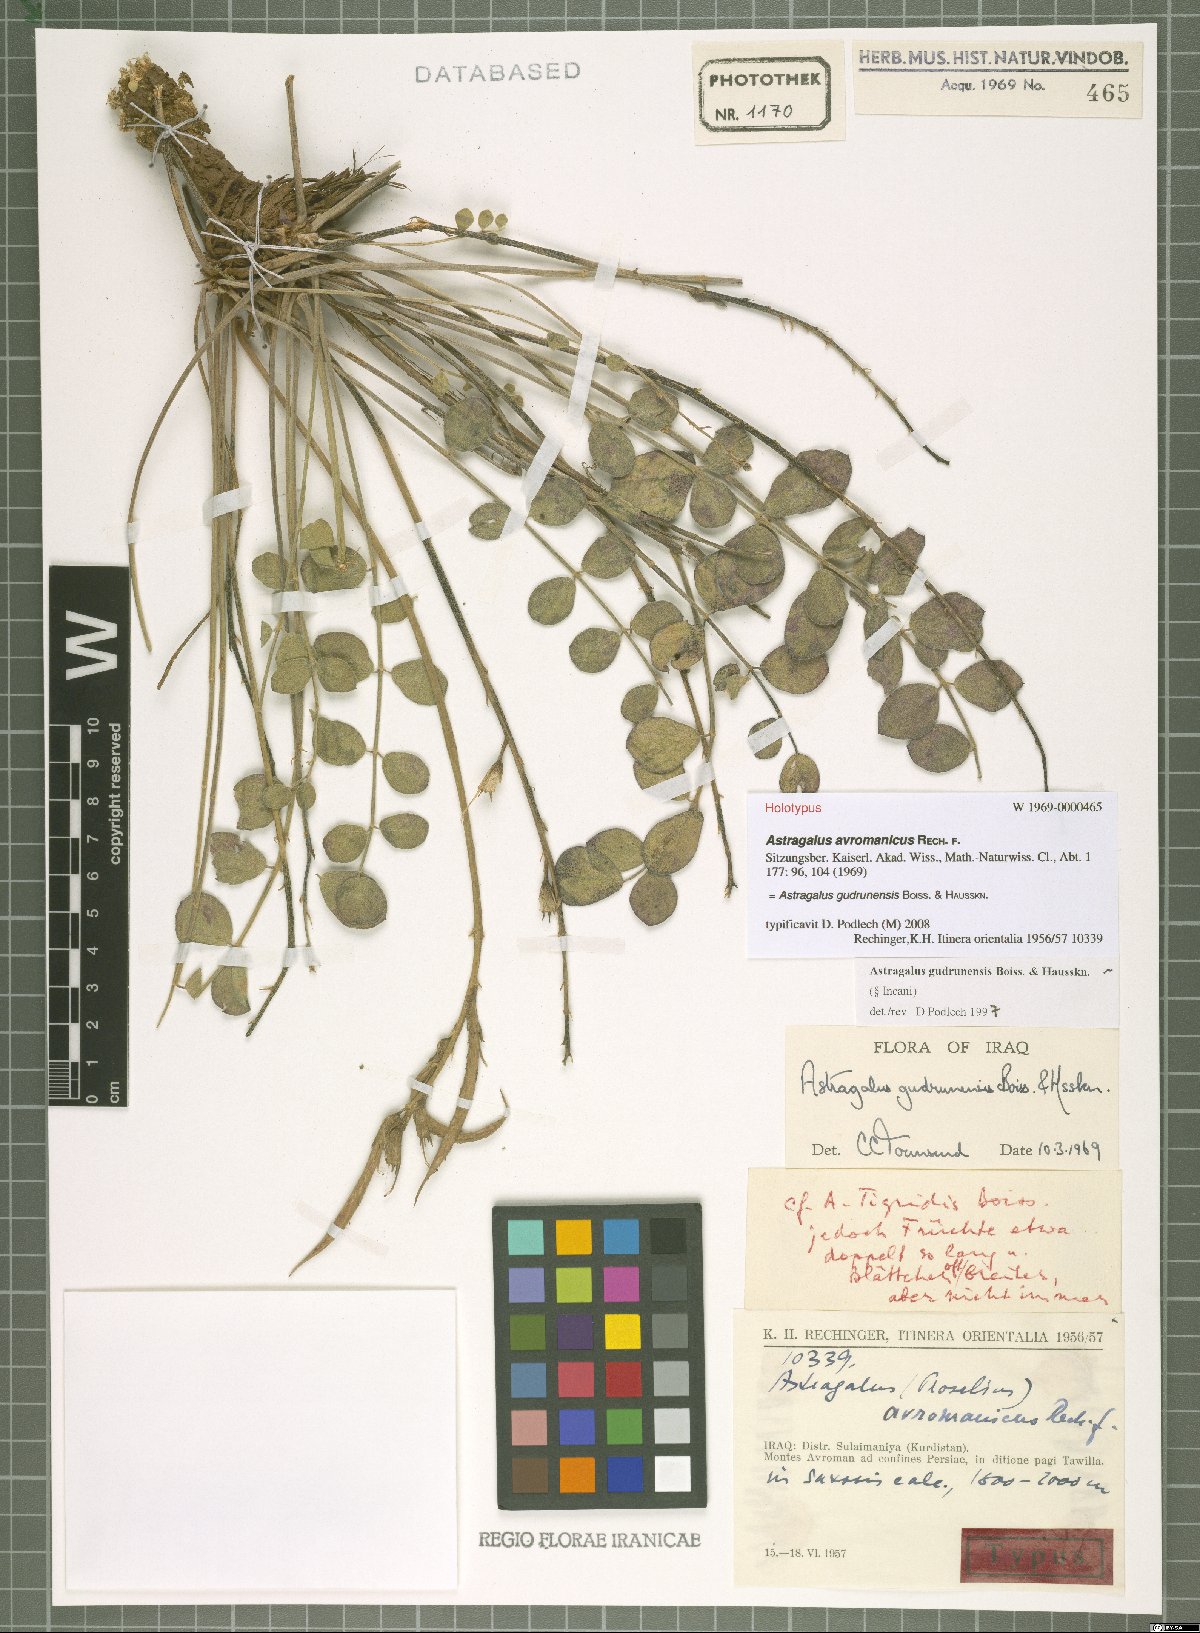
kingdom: Plantae
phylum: Tracheophyta
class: Magnoliopsida
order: Fabales
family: Fabaceae
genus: Astragalus
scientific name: Astragalus gudrunensis
